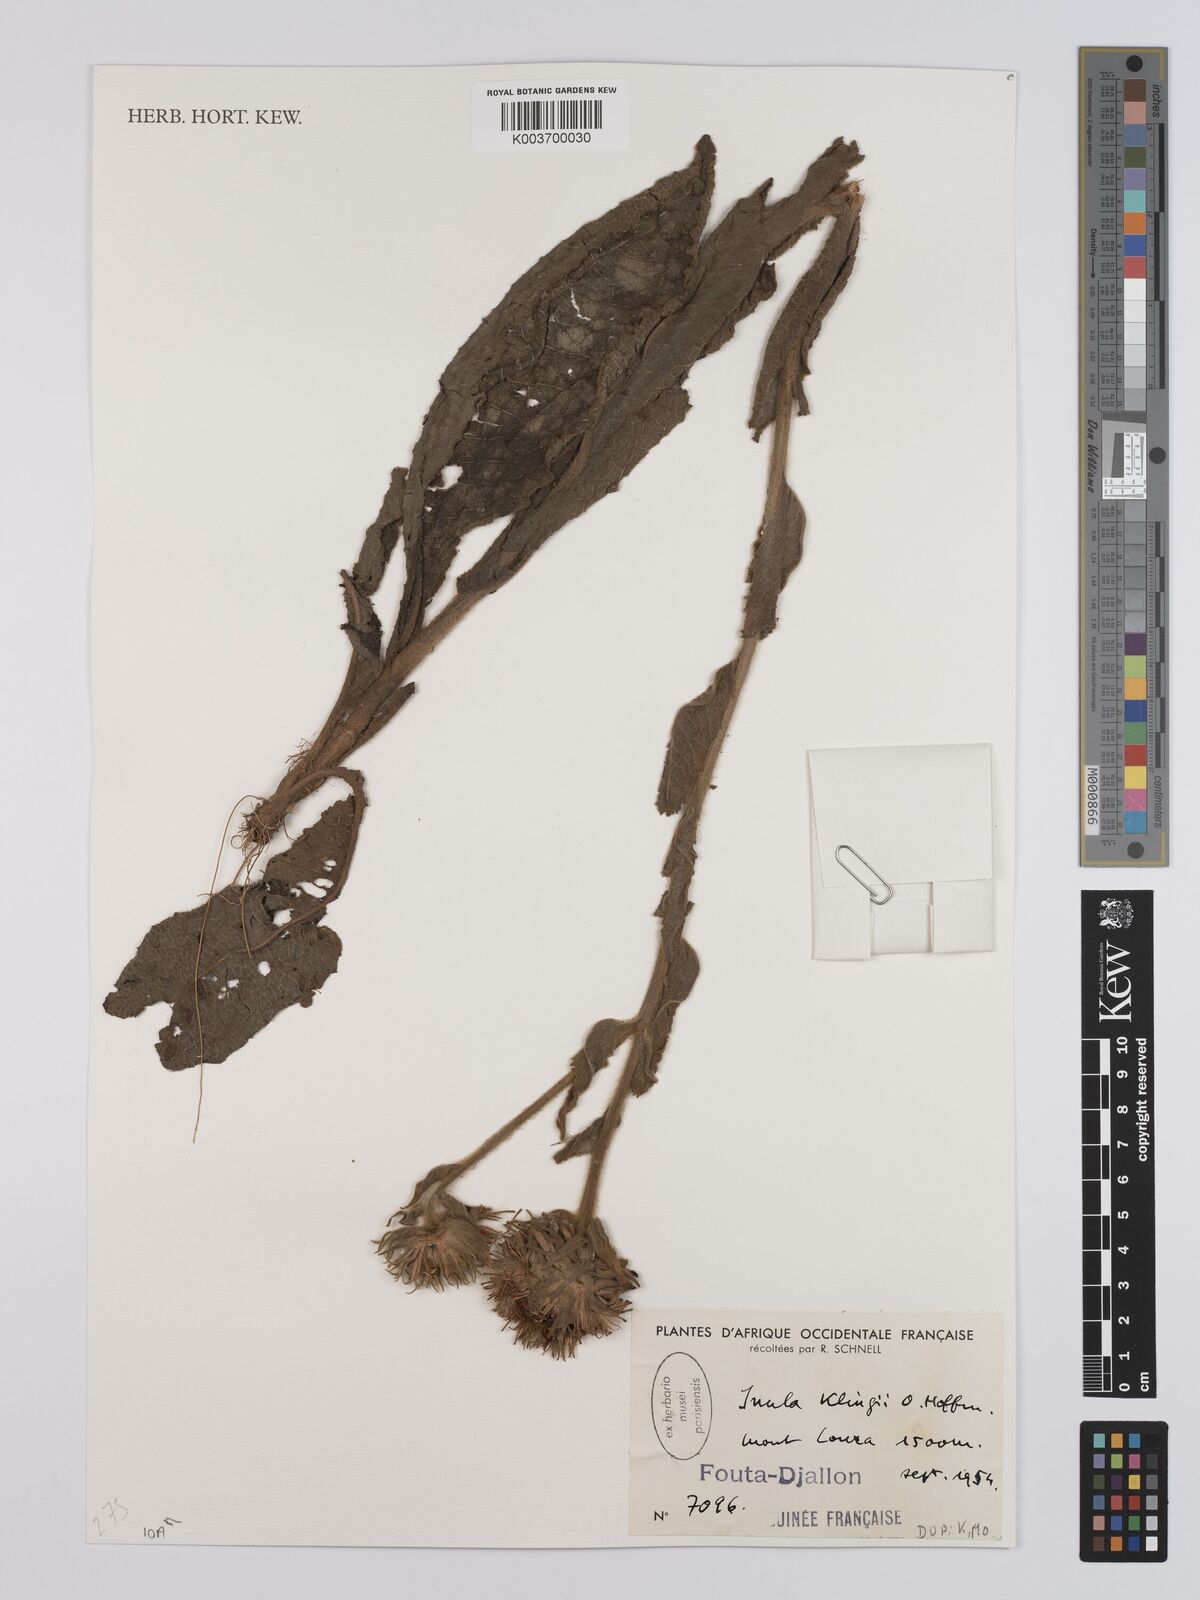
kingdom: Plantae
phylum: Tracheophyta
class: Magnoliopsida
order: Asterales
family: Asteraceae
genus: Inula
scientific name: Inula klingii
